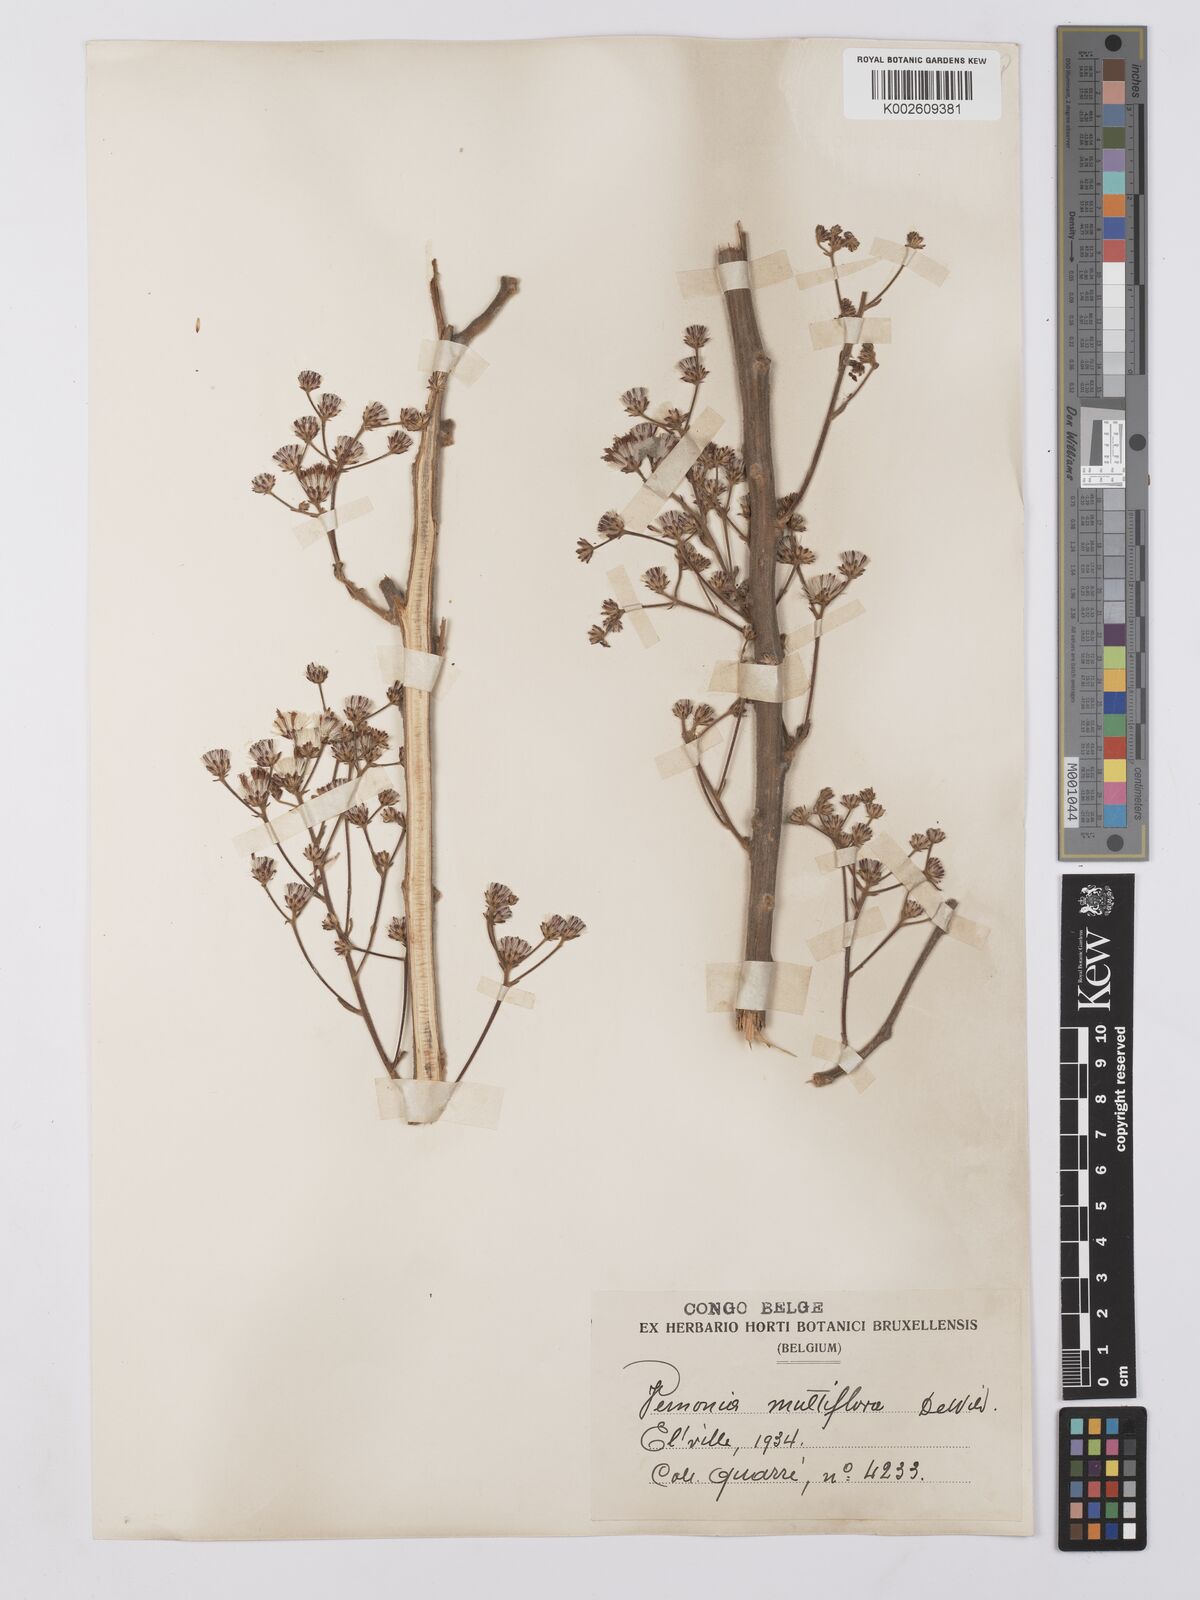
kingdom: Plantae
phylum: Tracheophyta
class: Magnoliopsida
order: Asterales
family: Asteraceae
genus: Vernonia
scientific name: Vernonia suprafastigiata
